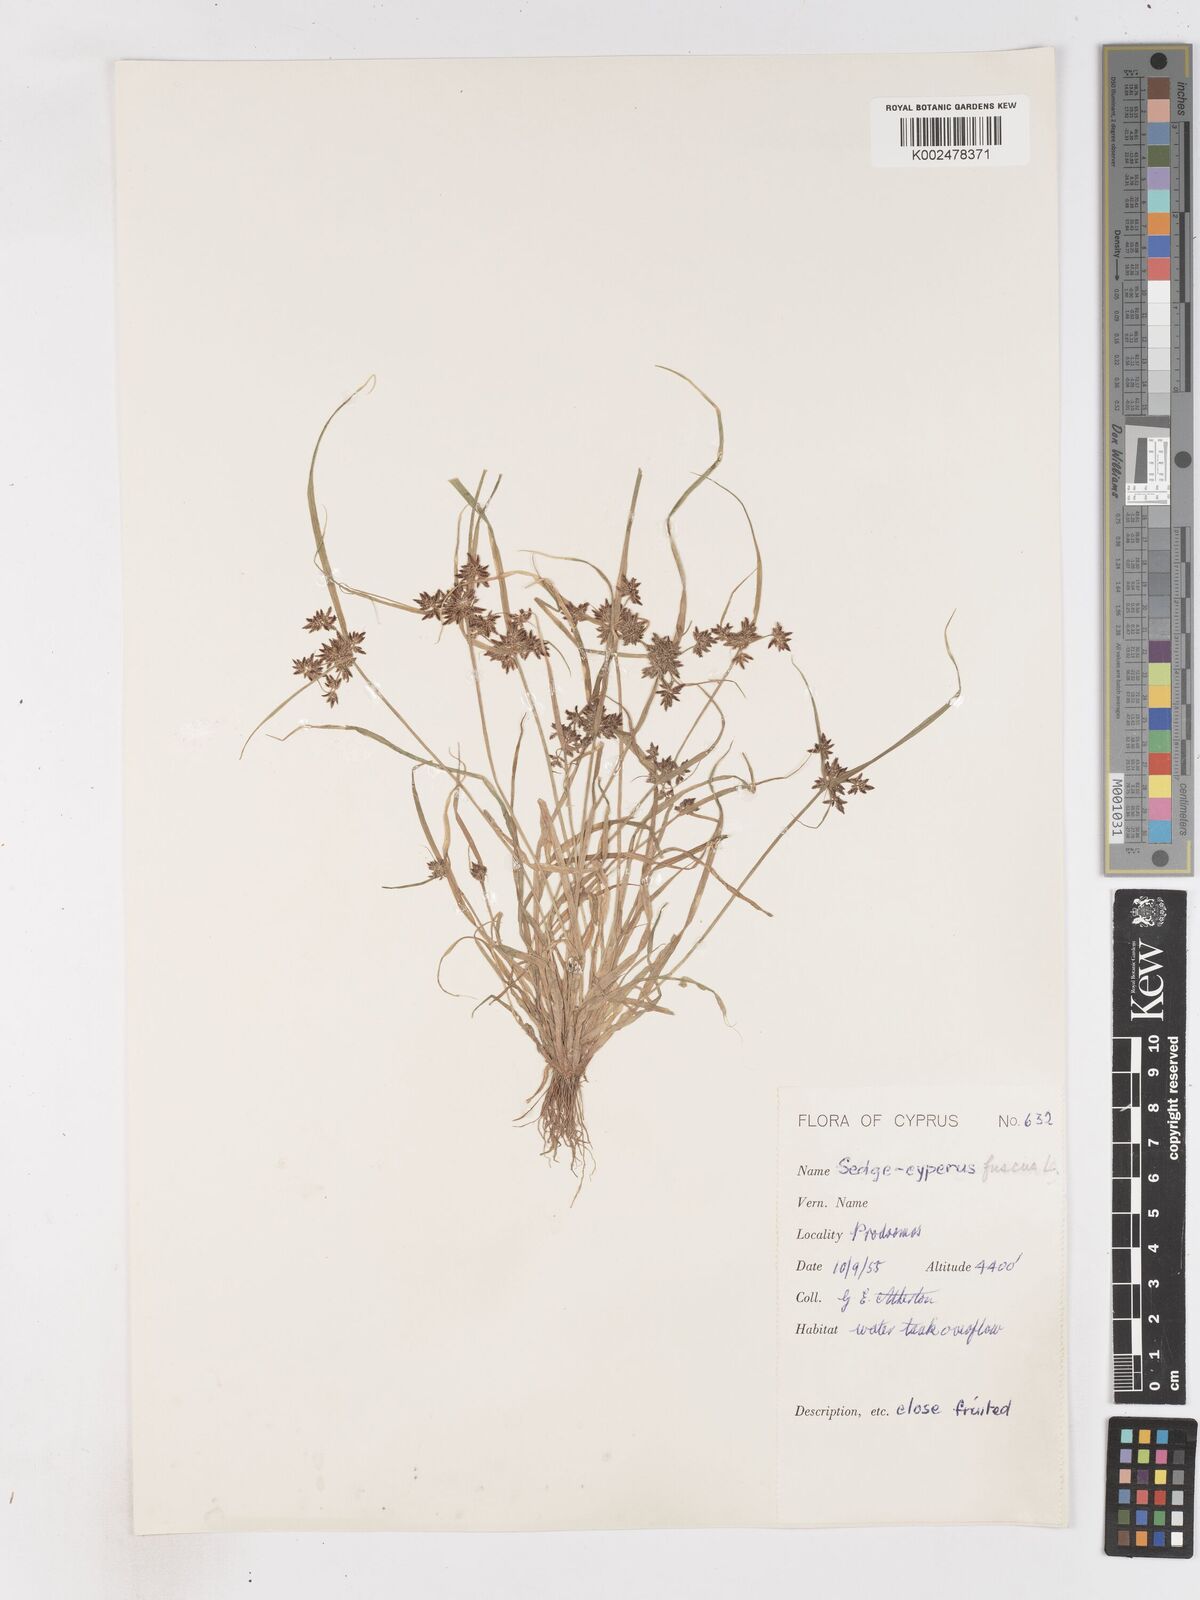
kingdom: Plantae
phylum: Tracheophyta
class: Liliopsida
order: Poales
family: Cyperaceae
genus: Cyperus
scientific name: Cyperus fuscus
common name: Brown galingale
